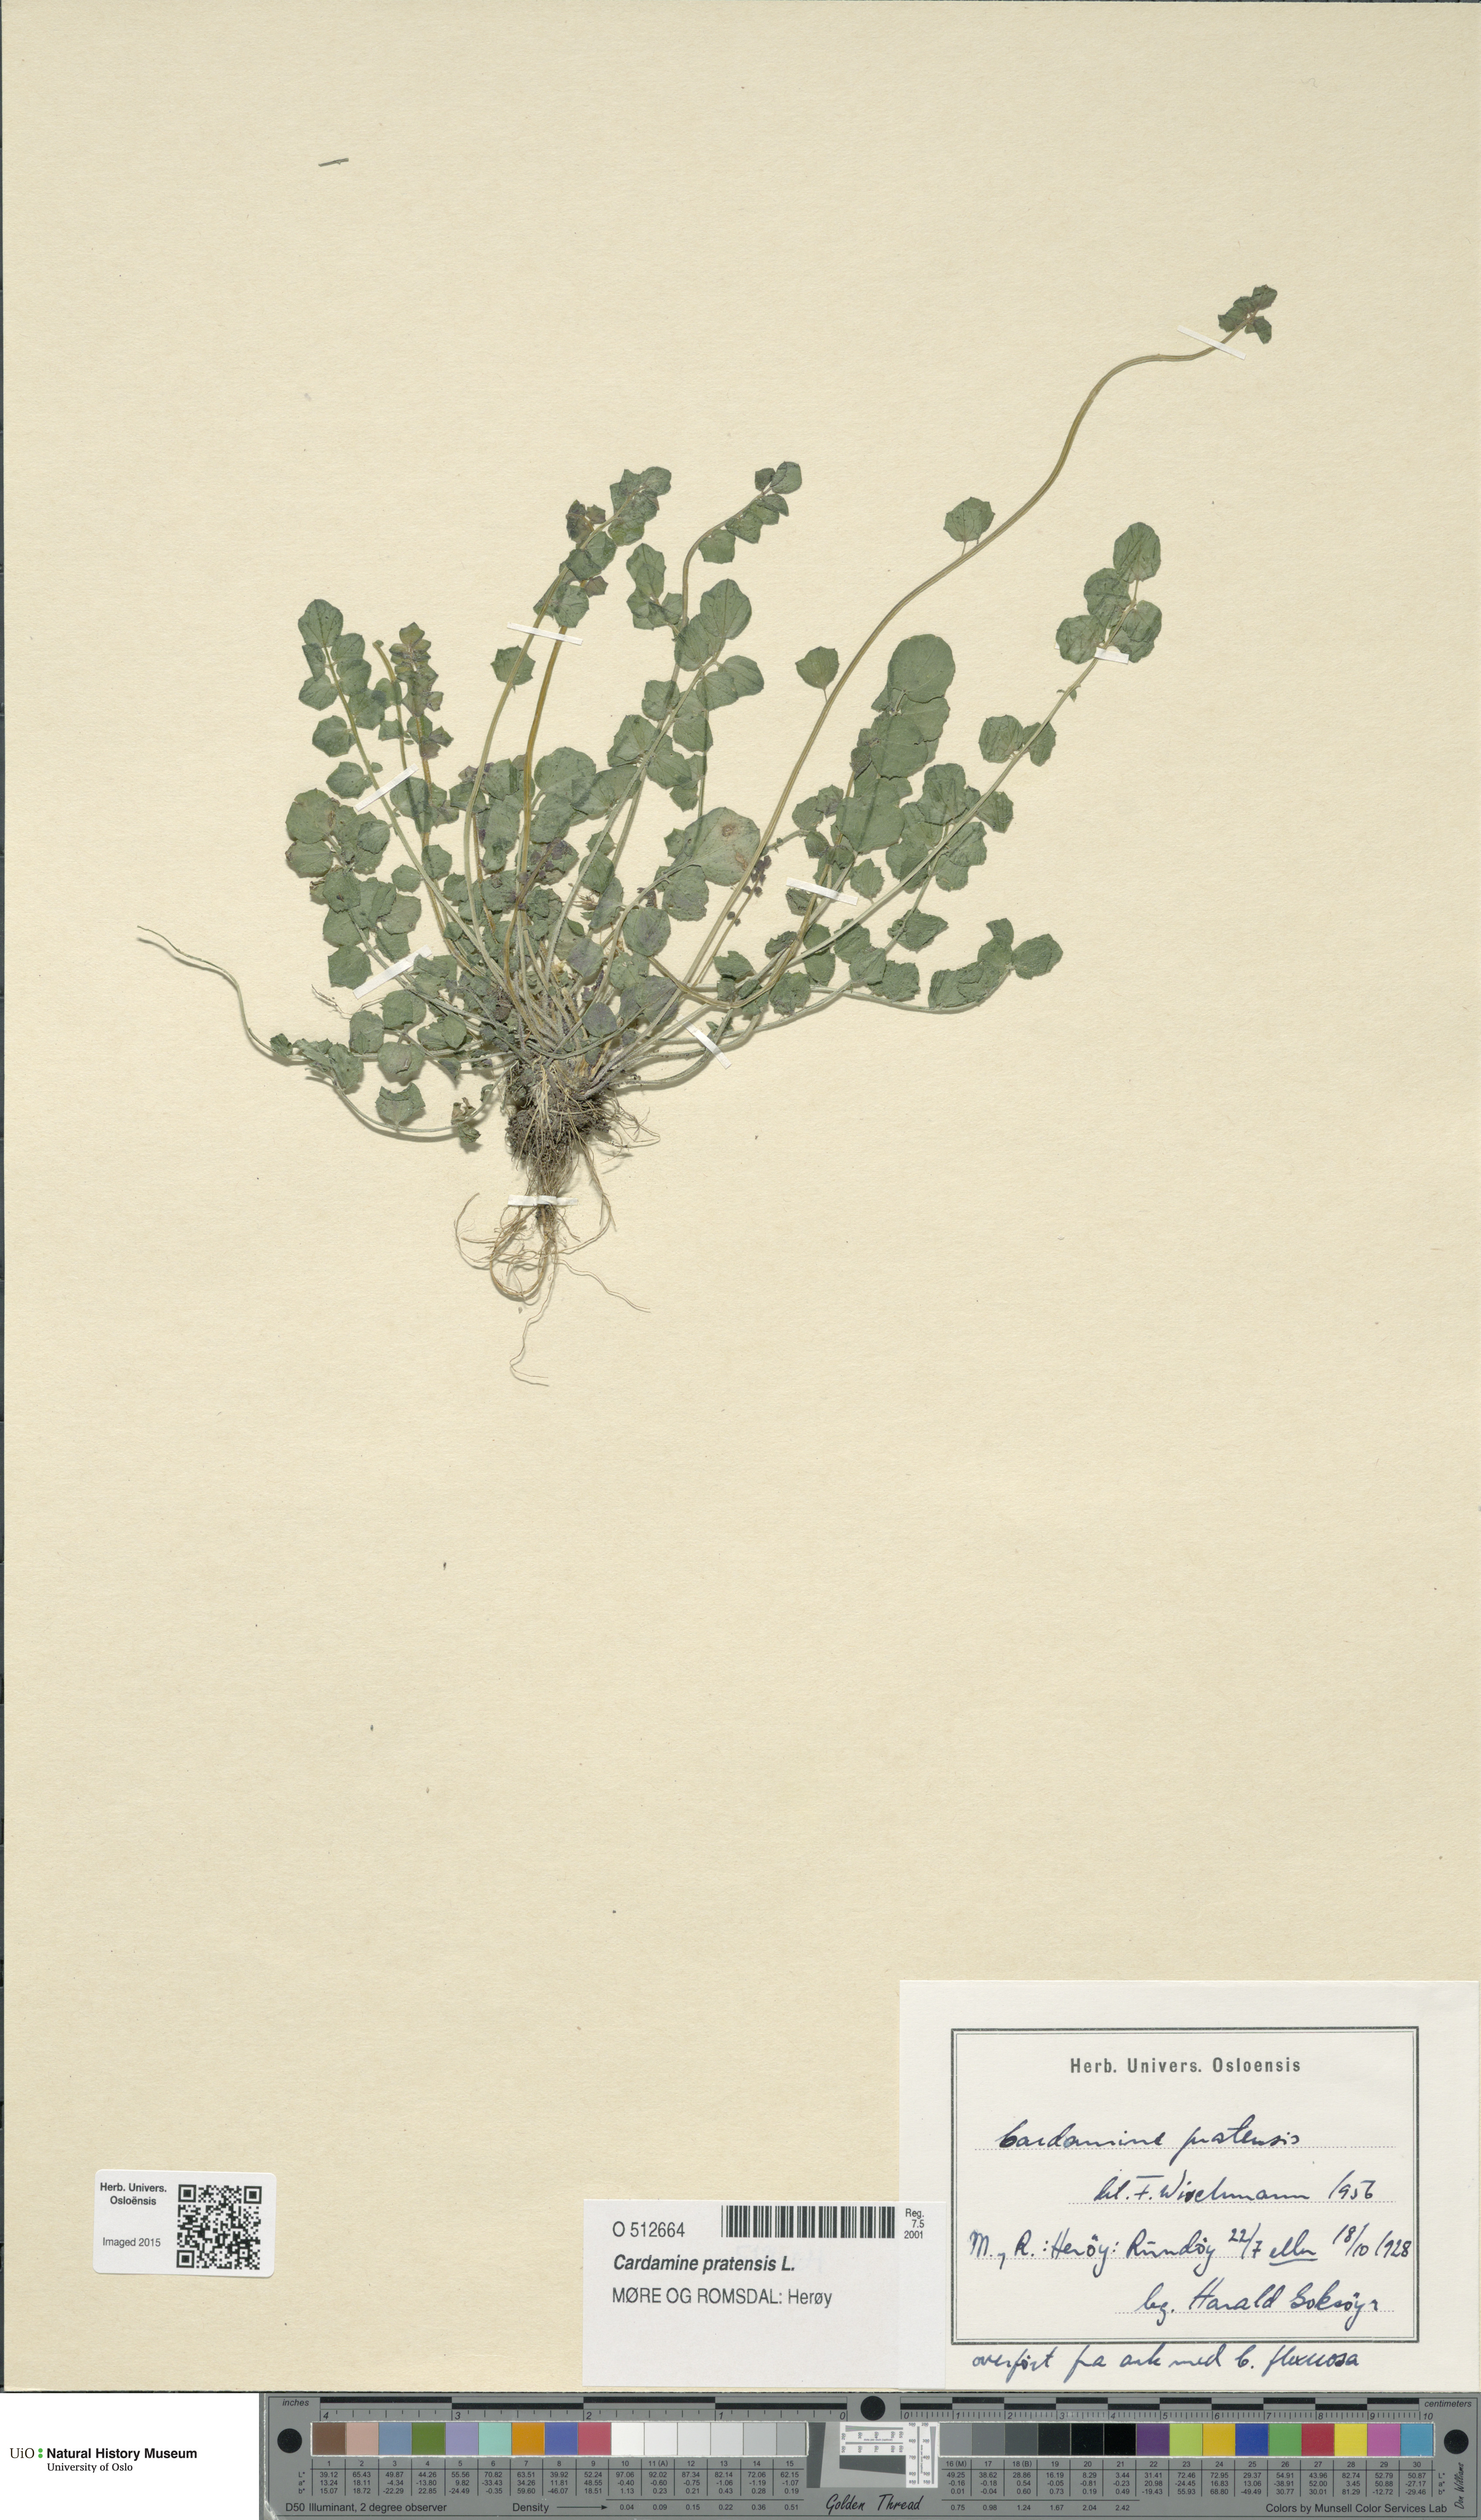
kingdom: Plantae
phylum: Tracheophyta
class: Magnoliopsida
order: Brassicales
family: Brassicaceae
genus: Cardamine
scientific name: Cardamine pratensis
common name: Cuckoo flower
